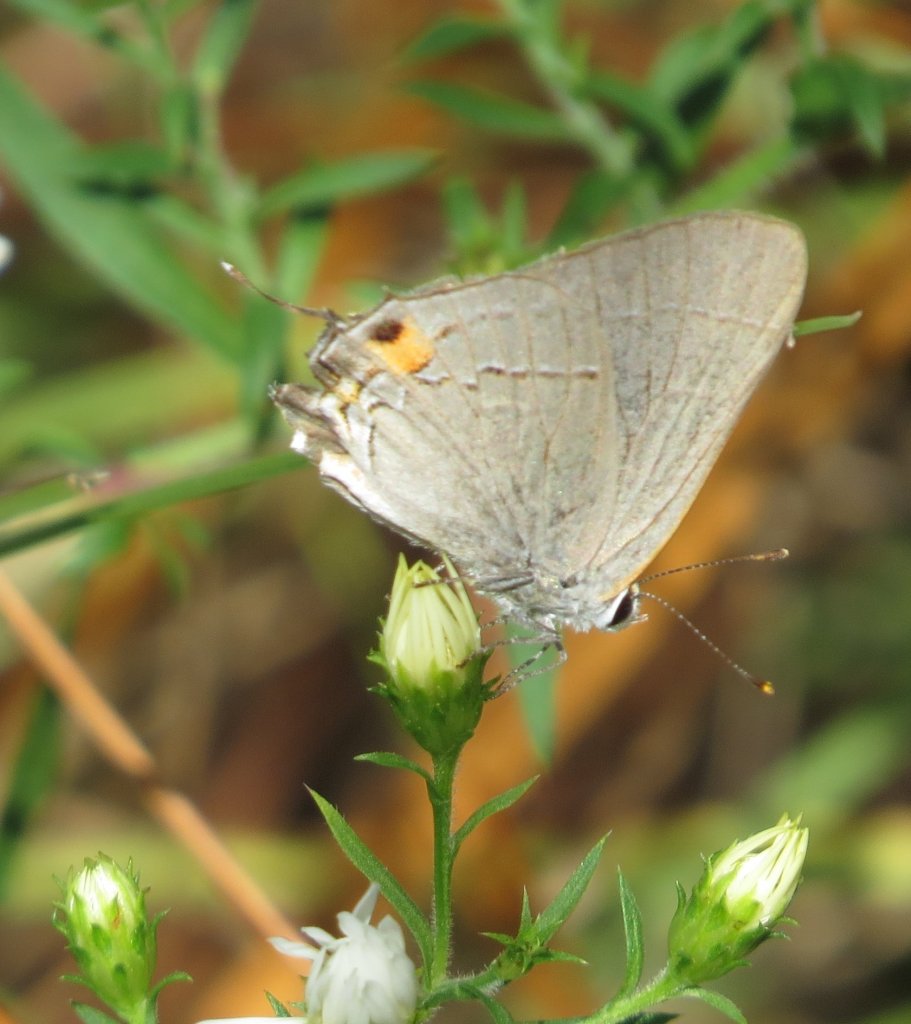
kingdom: Animalia
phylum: Arthropoda
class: Insecta
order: Lepidoptera
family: Lycaenidae
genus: Strymon
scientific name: Strymon melinus
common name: Gray Hairstreak
